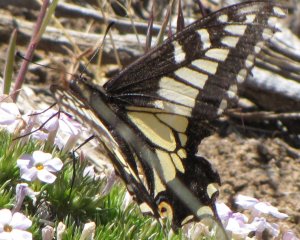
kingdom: Animalia
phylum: Arthropoda
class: Insecta
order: Lepidoptera
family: Papilionidae
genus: Papilio
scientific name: Papilio zelicaon
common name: Anise Swallowtail
